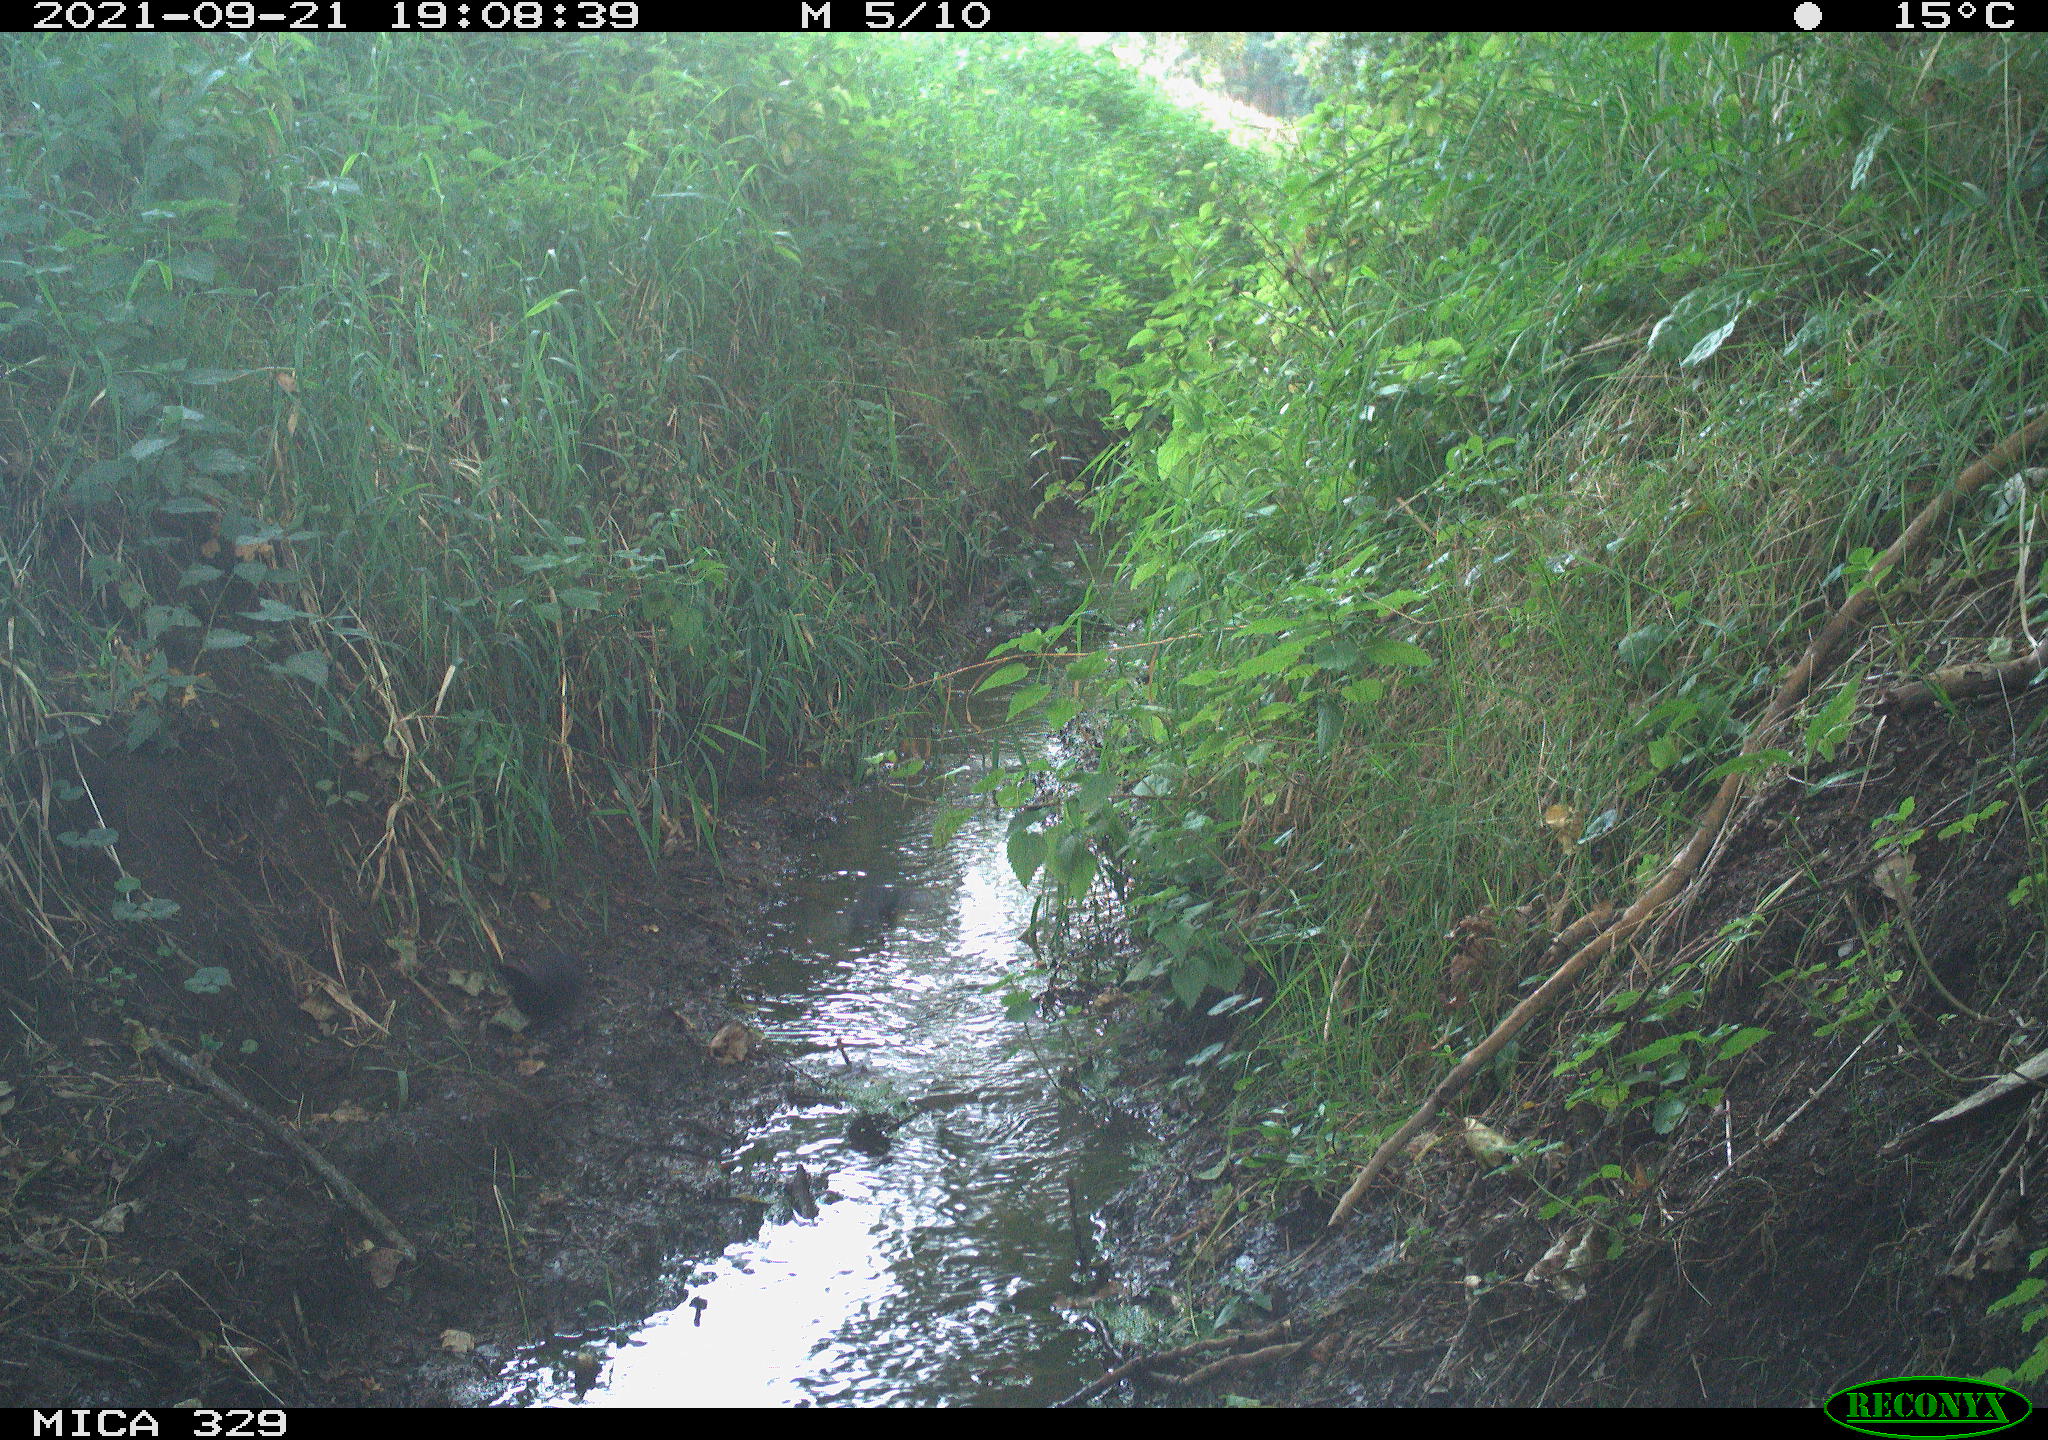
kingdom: Animalia
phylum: Chordata
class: Aves
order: Passeriformes
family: Turdidae
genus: Turdus
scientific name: Turdus merula
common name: Common blackbird
